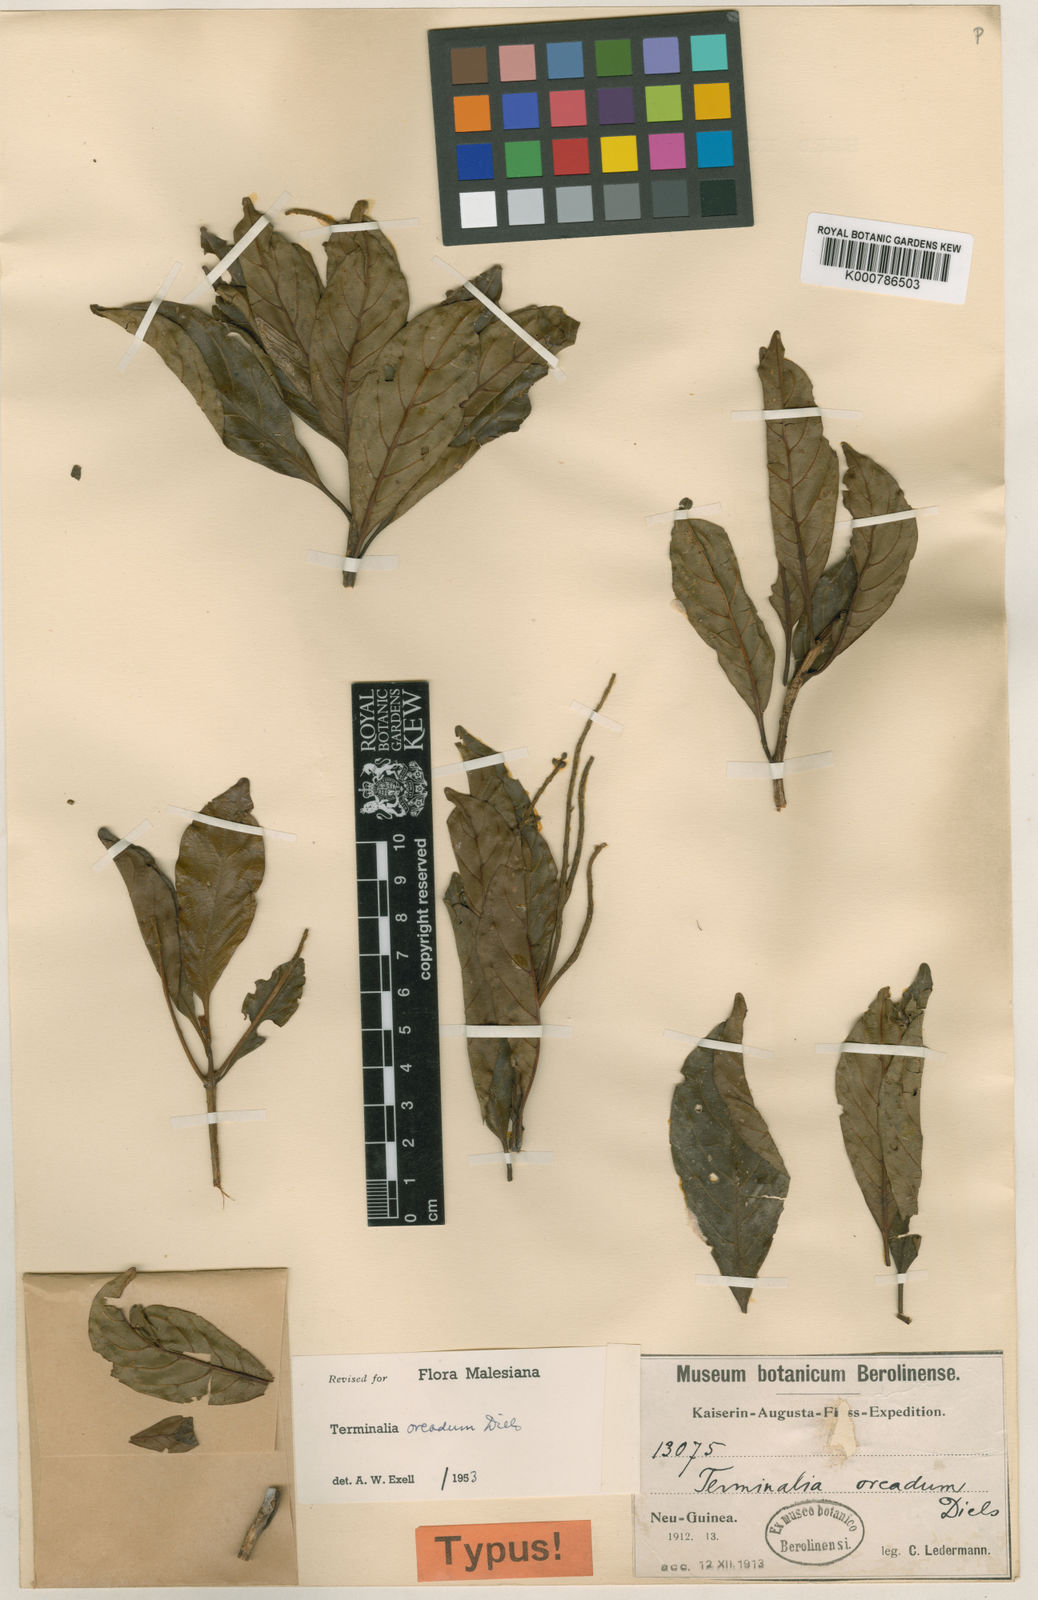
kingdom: Plantae
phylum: Tracheophyta
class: Magnoliopsida
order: Myrtales
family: Combretaceae
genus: Terminalia
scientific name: Terminalia oreadum
